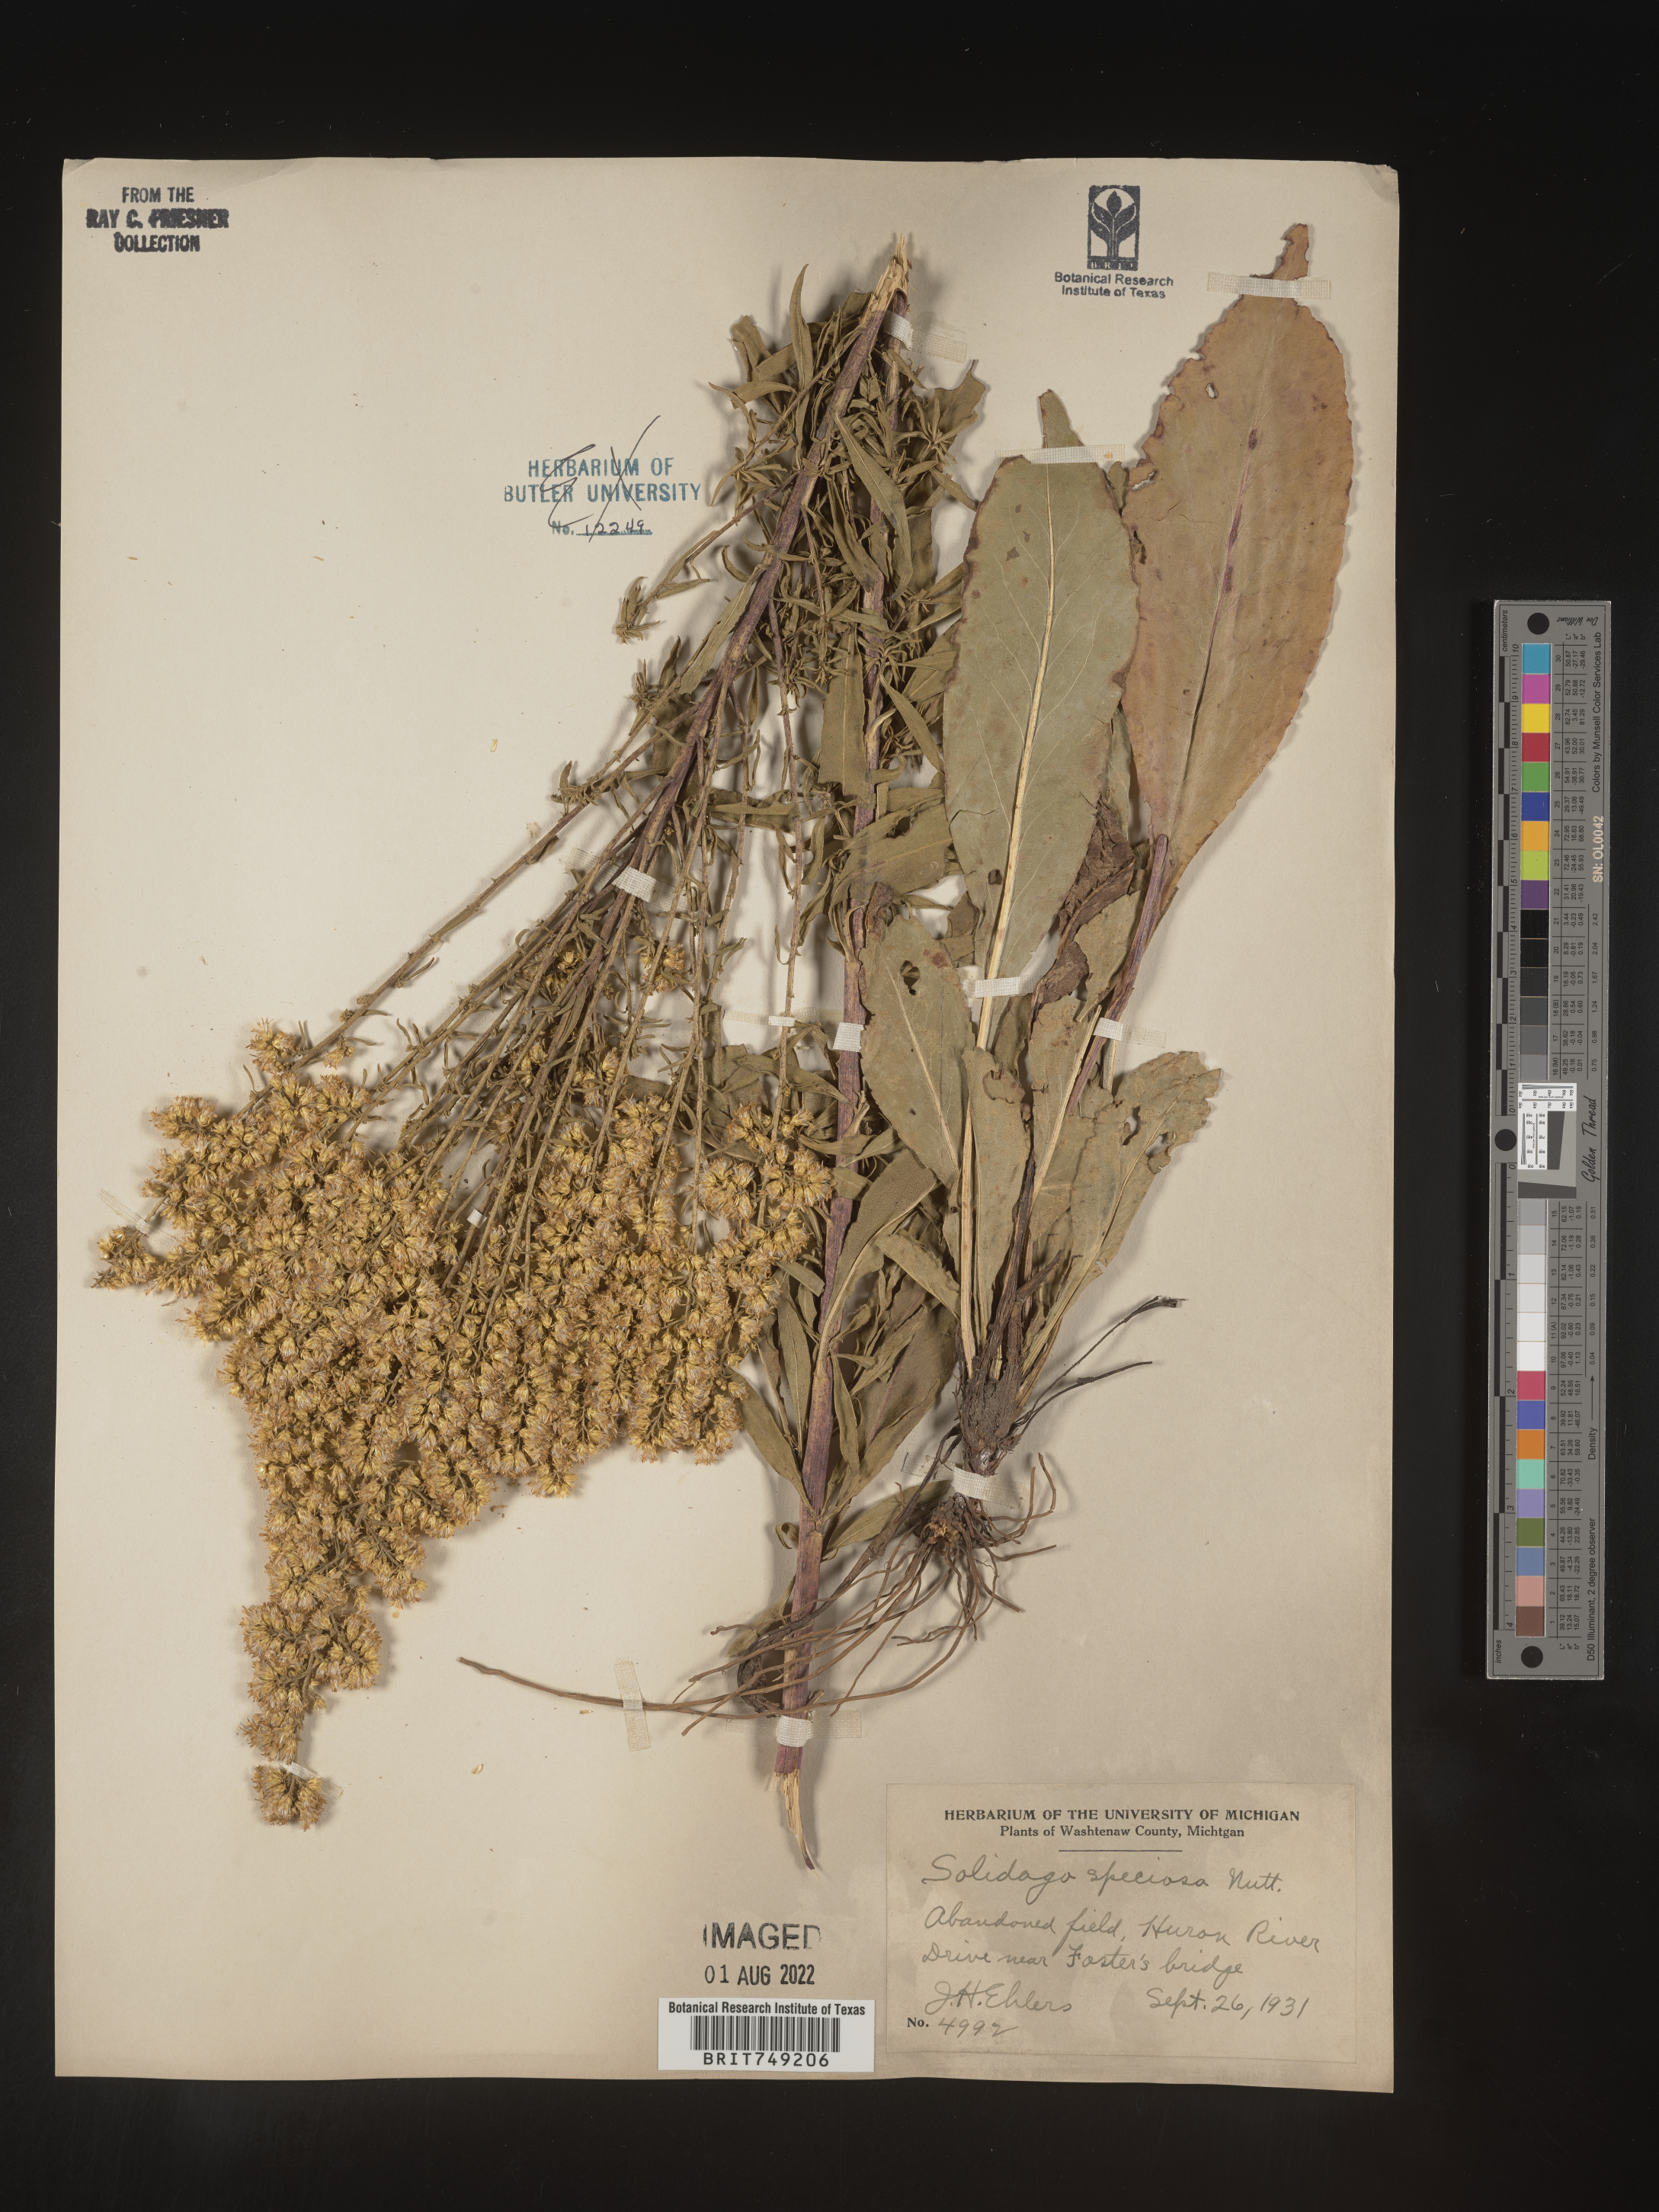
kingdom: Plantae
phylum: Tracheophyta
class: Magnoliopsida
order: Asterales
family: Asteraceae
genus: Solidago
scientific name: Solidago speciosa
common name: Showy goldenrod
